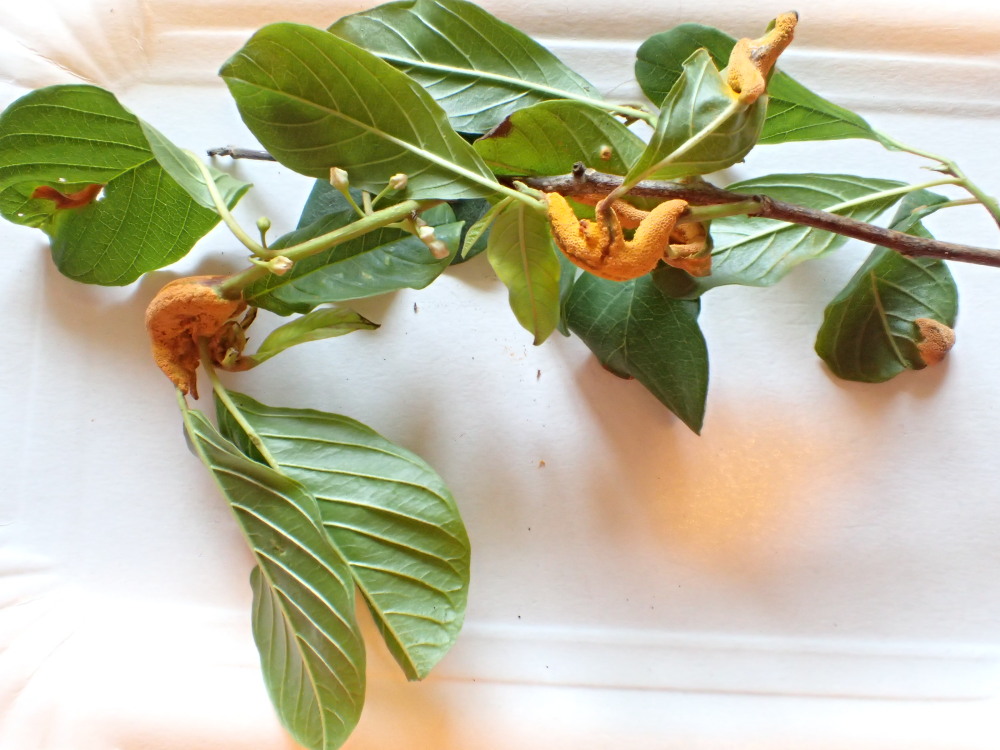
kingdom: Fungi
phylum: Basidiomycota
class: Pucciniomycetes
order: Pucciniales
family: Pucciniaceae
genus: Puccinia
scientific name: Puccinia coronata
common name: Crown rust
